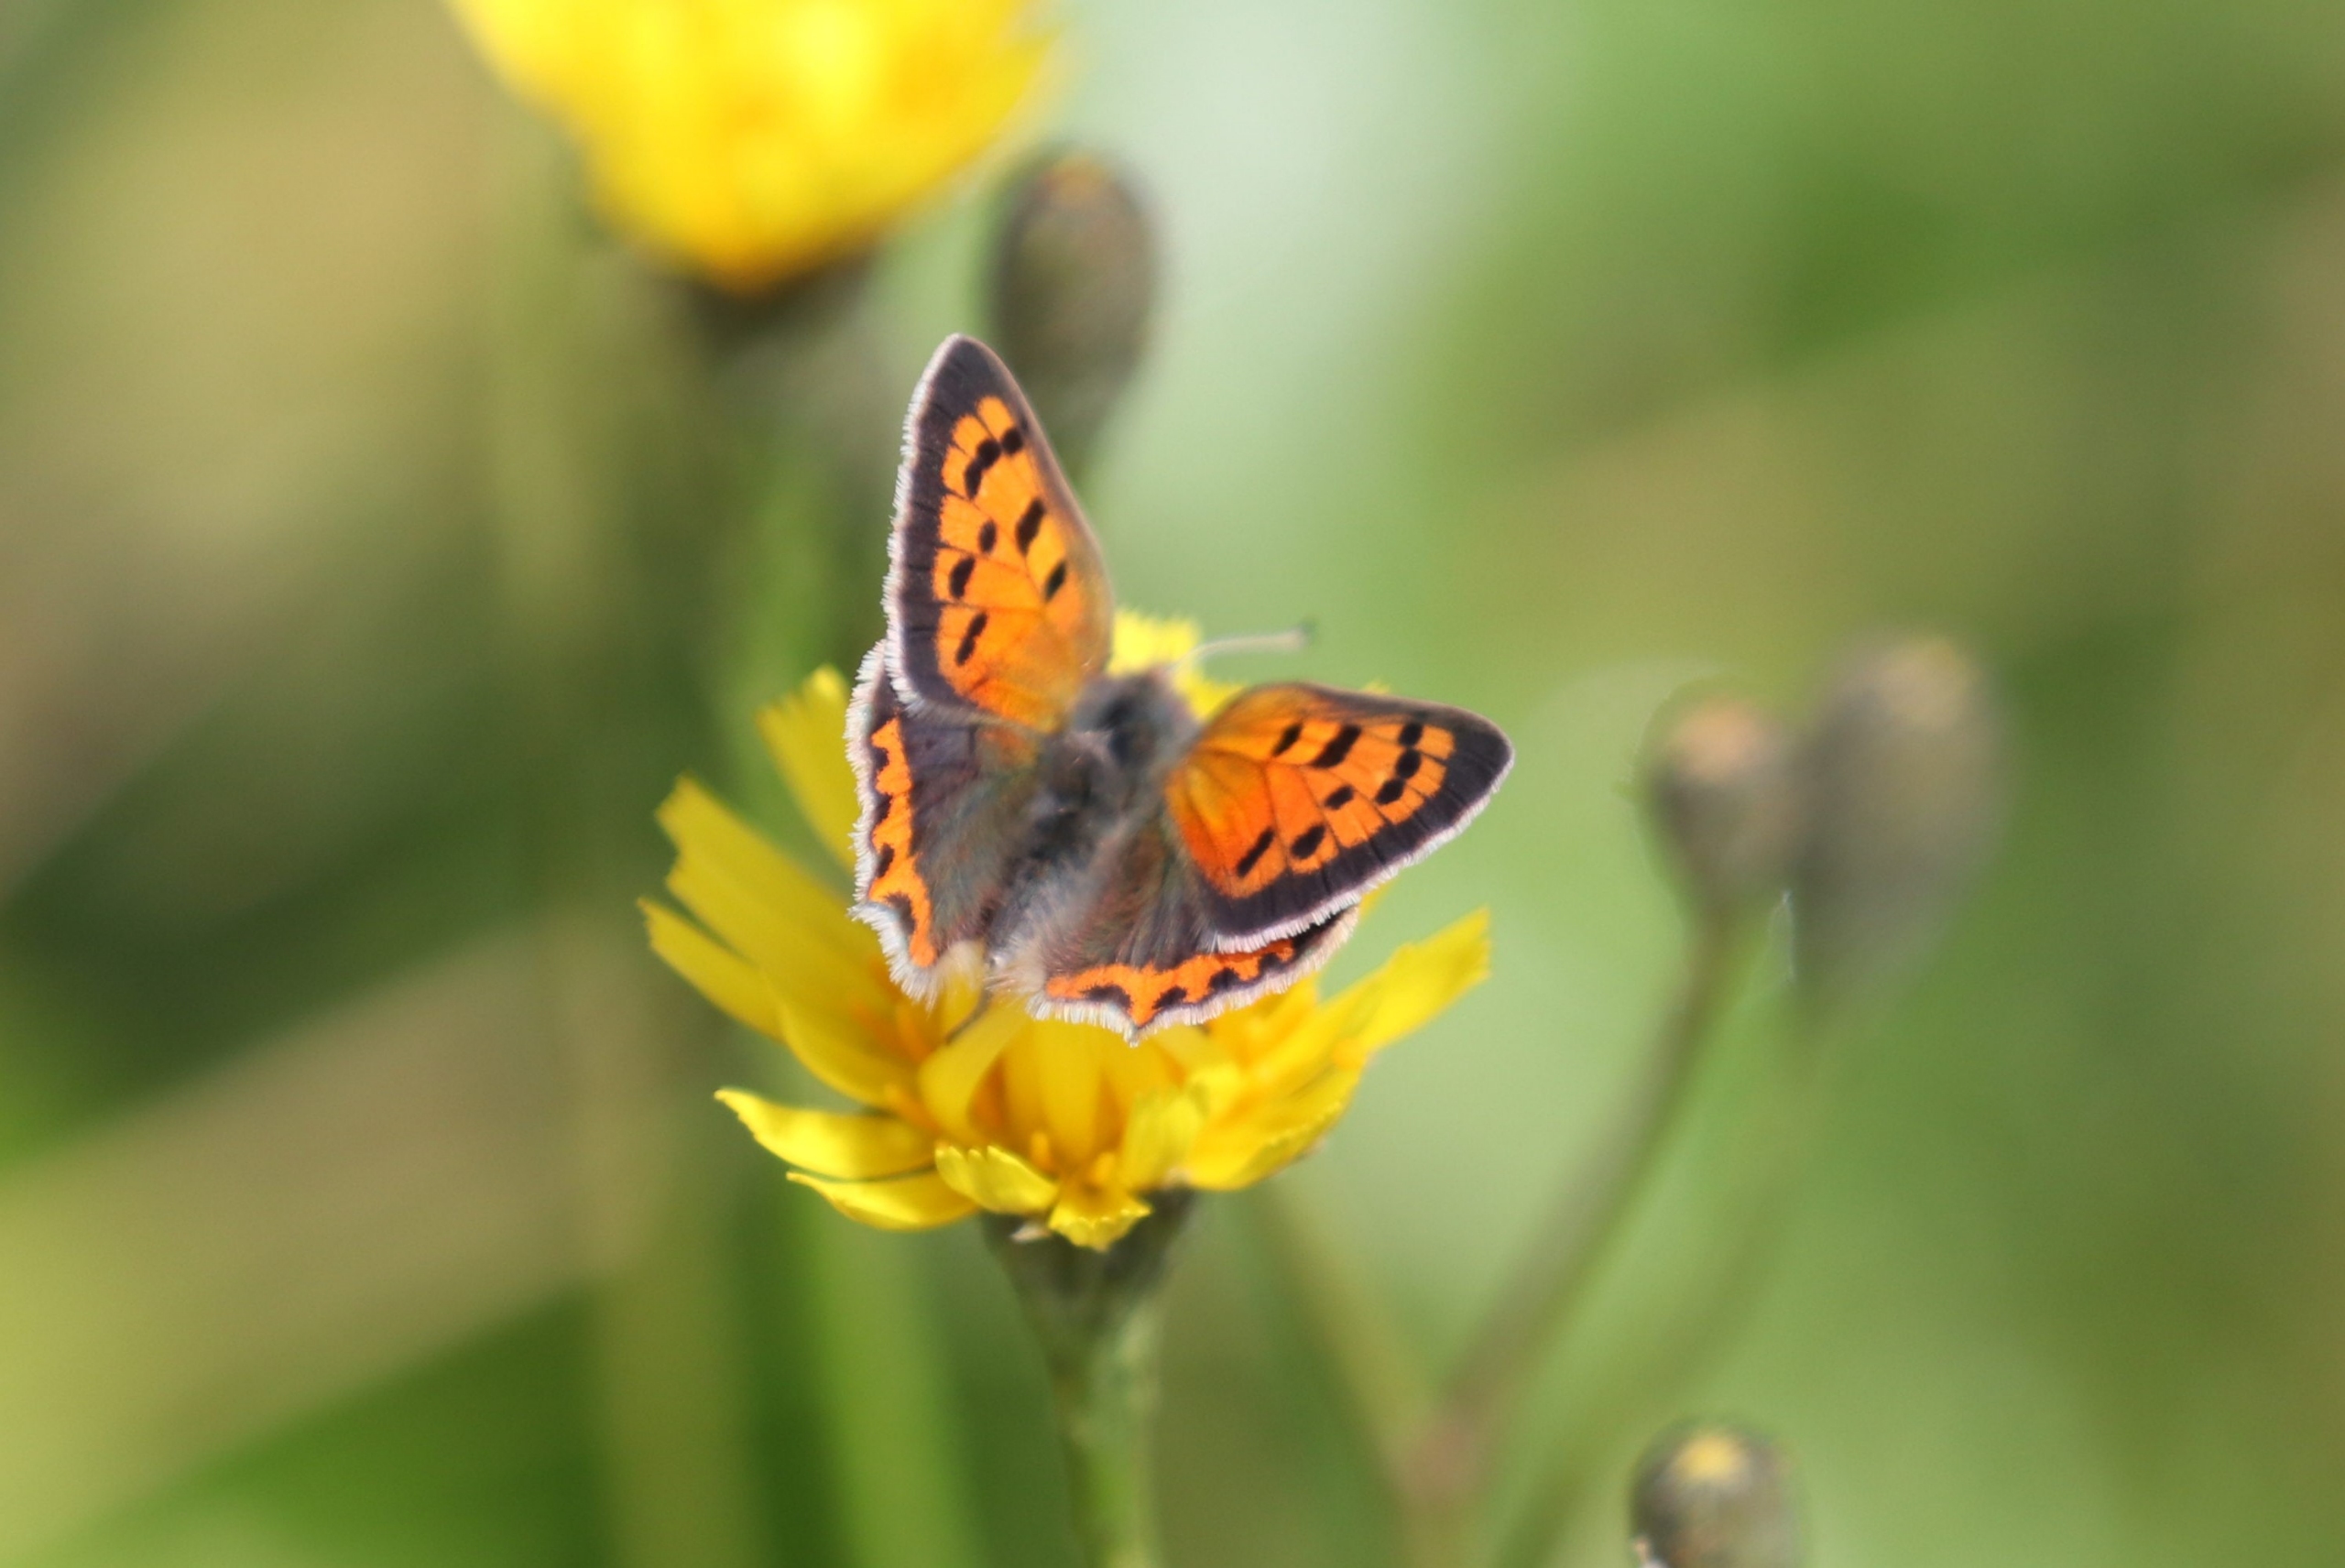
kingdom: Animalia
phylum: Arthropoda
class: Insecta
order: Lepidoptera
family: Lycaenidae
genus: Lycaena
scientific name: Lycaena phlaeas
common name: Lille ildfugl
